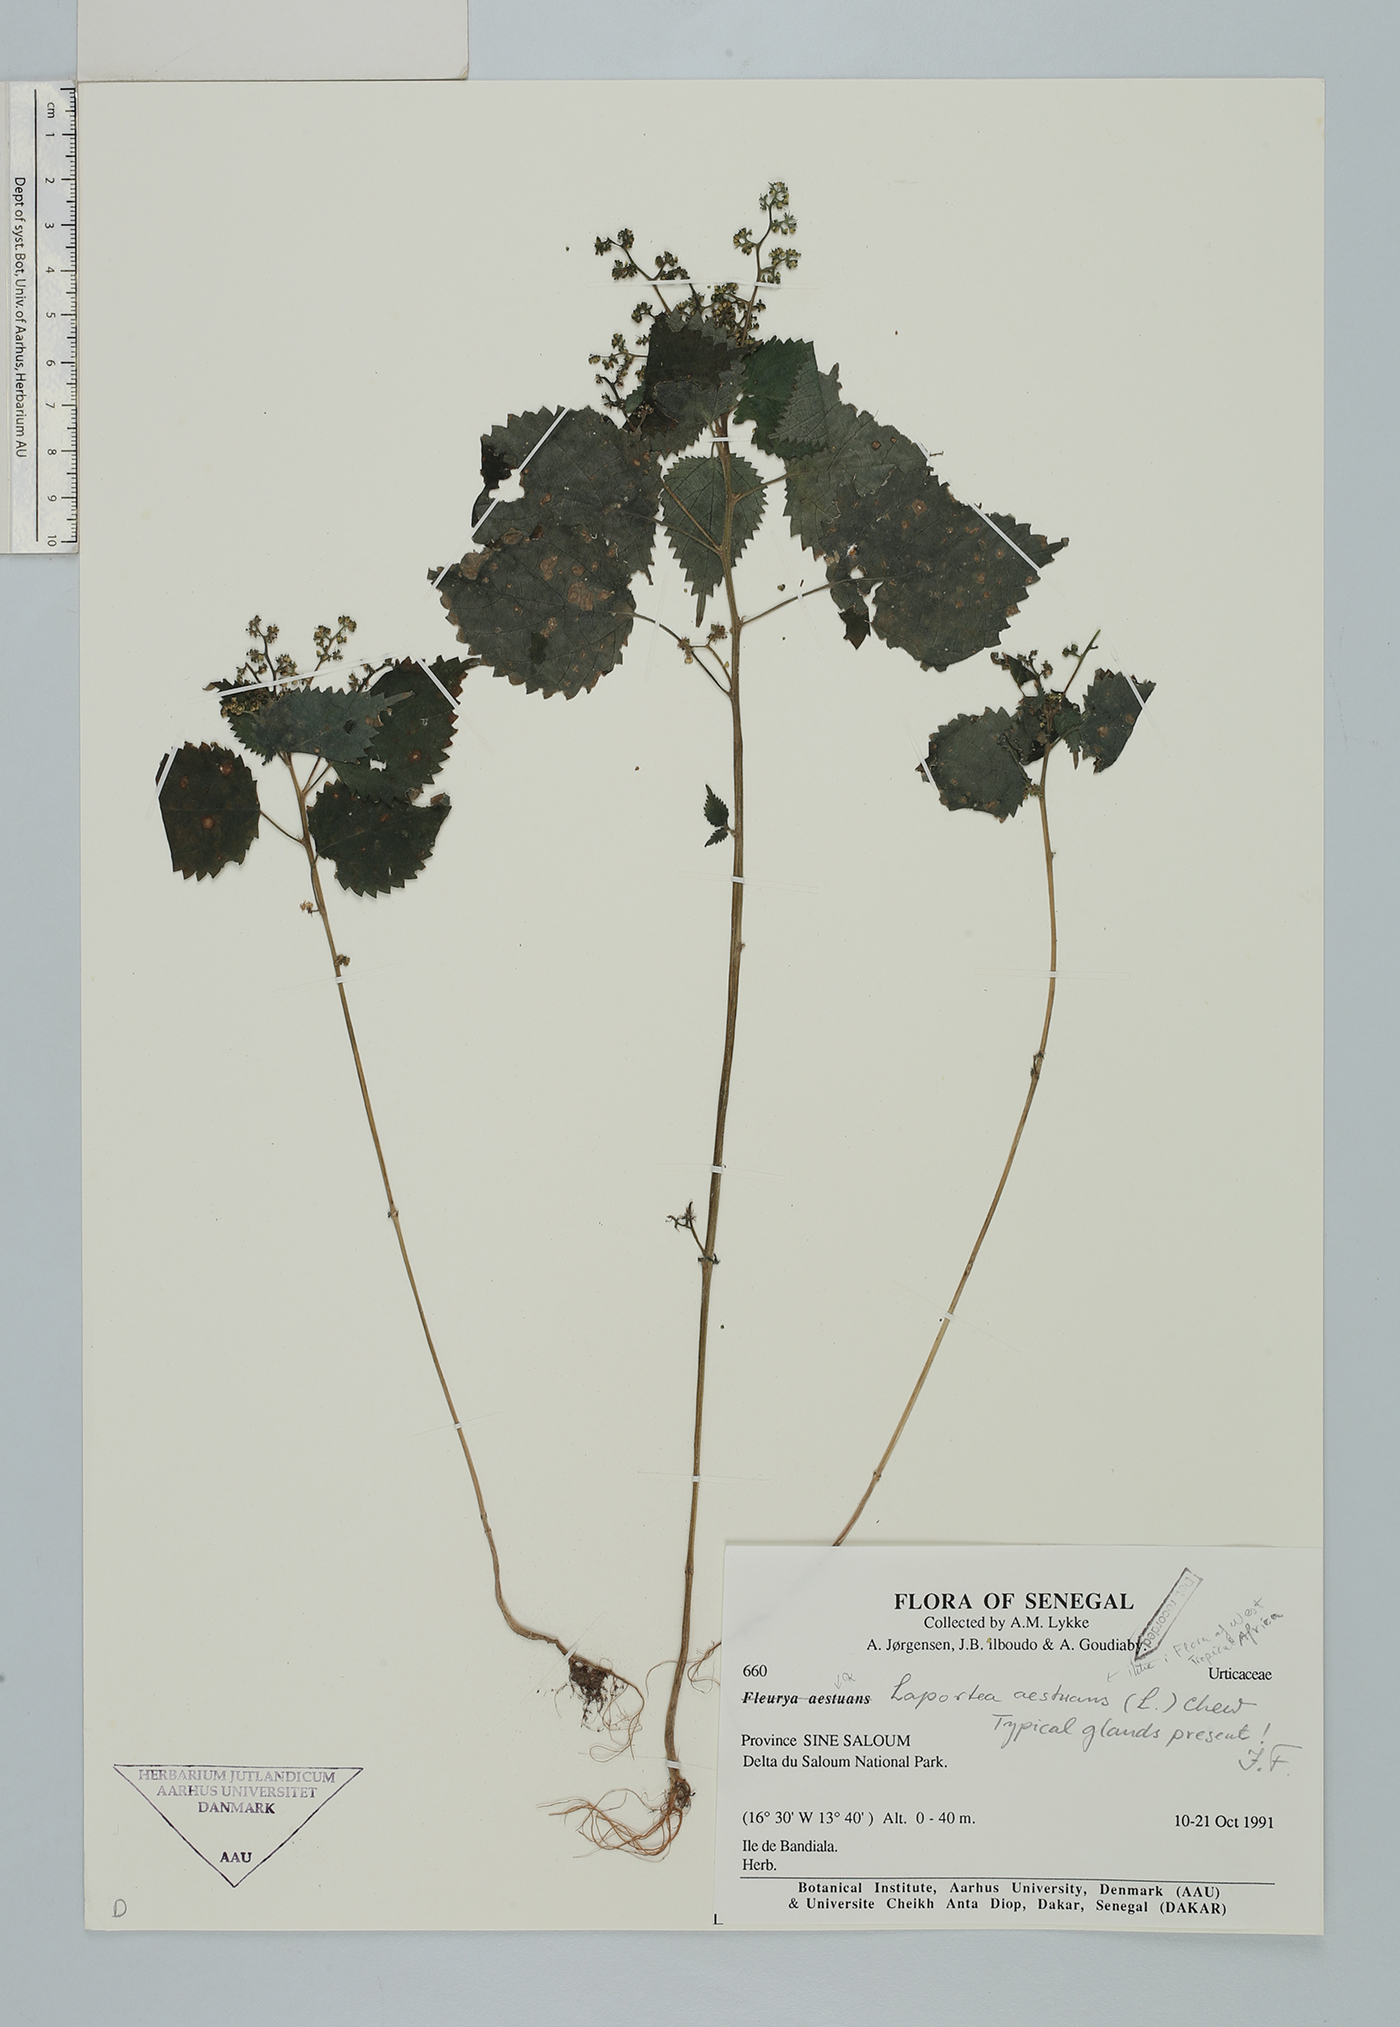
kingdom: Plantae
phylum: Tracheophyta
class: Magnoliopsida
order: Rosales
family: Urticaceae
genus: Laportea
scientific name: Laportea aestuans
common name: West indian woodnettle
